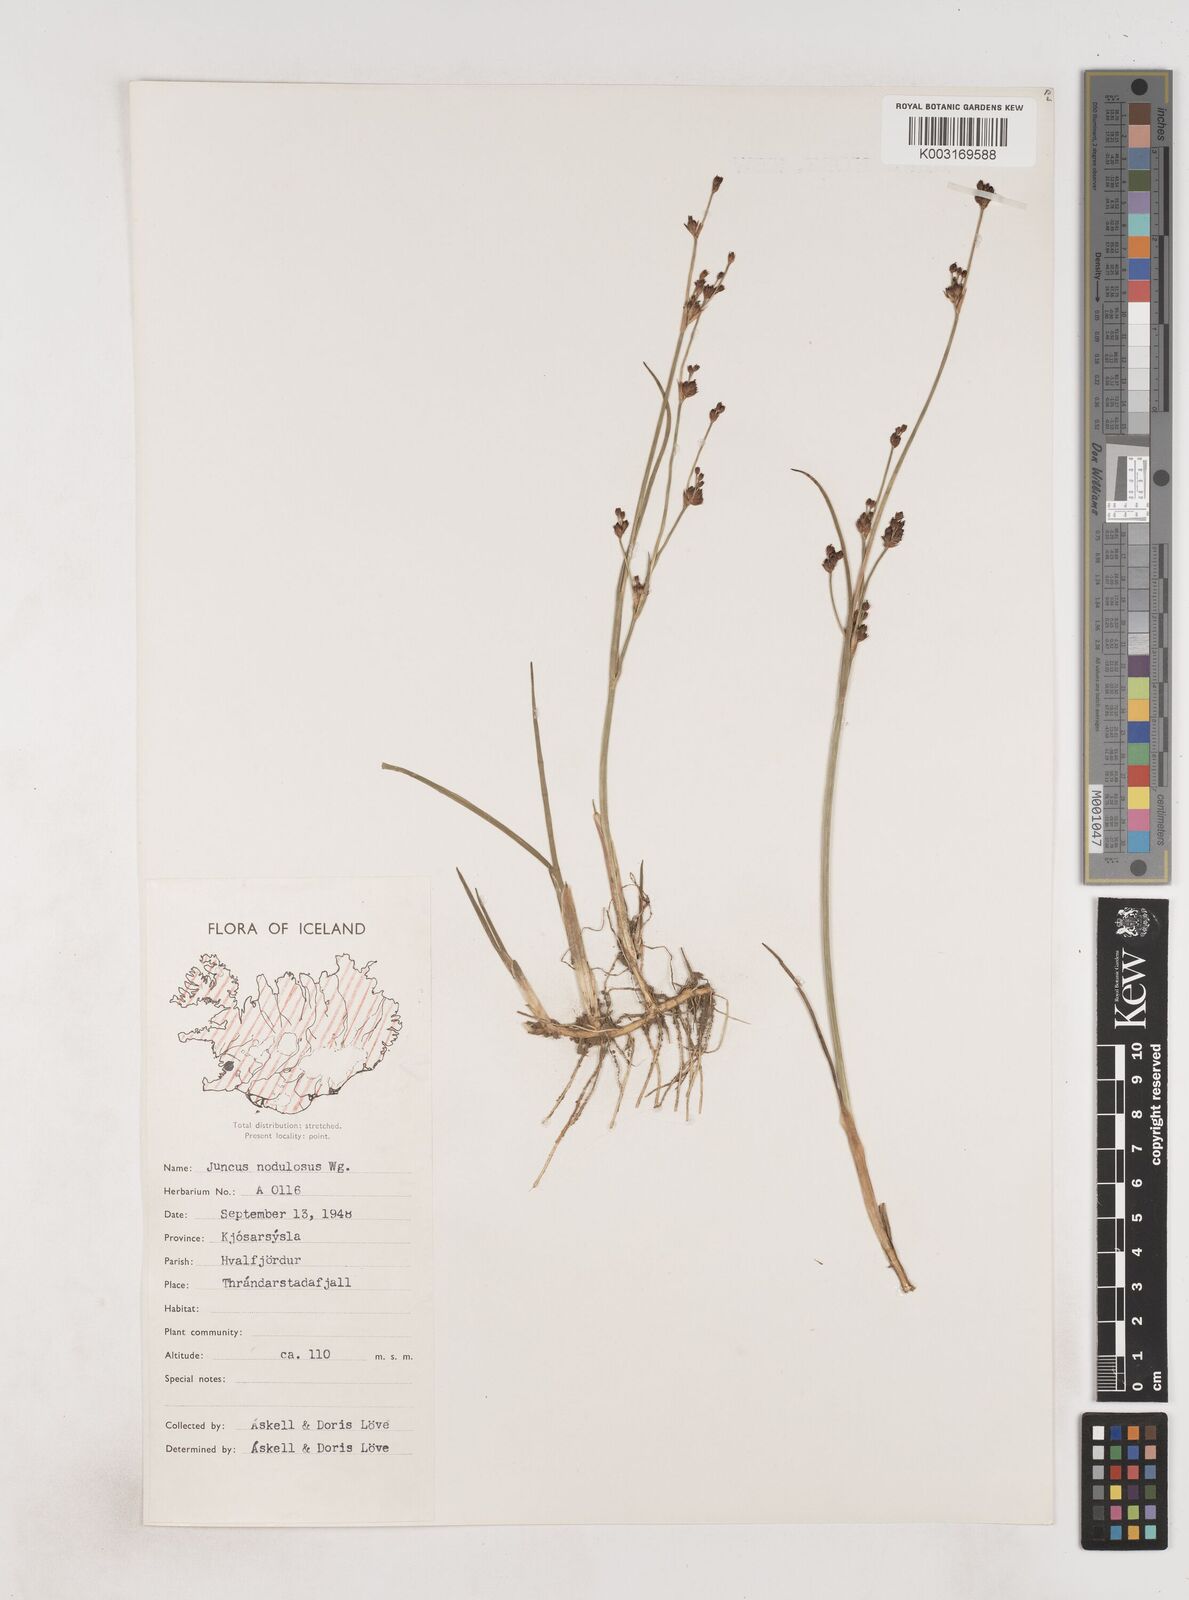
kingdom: Plantae
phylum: Tracheophyta
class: Liliopsida
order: Poales
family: Juncaceae
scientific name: Juncaceae
